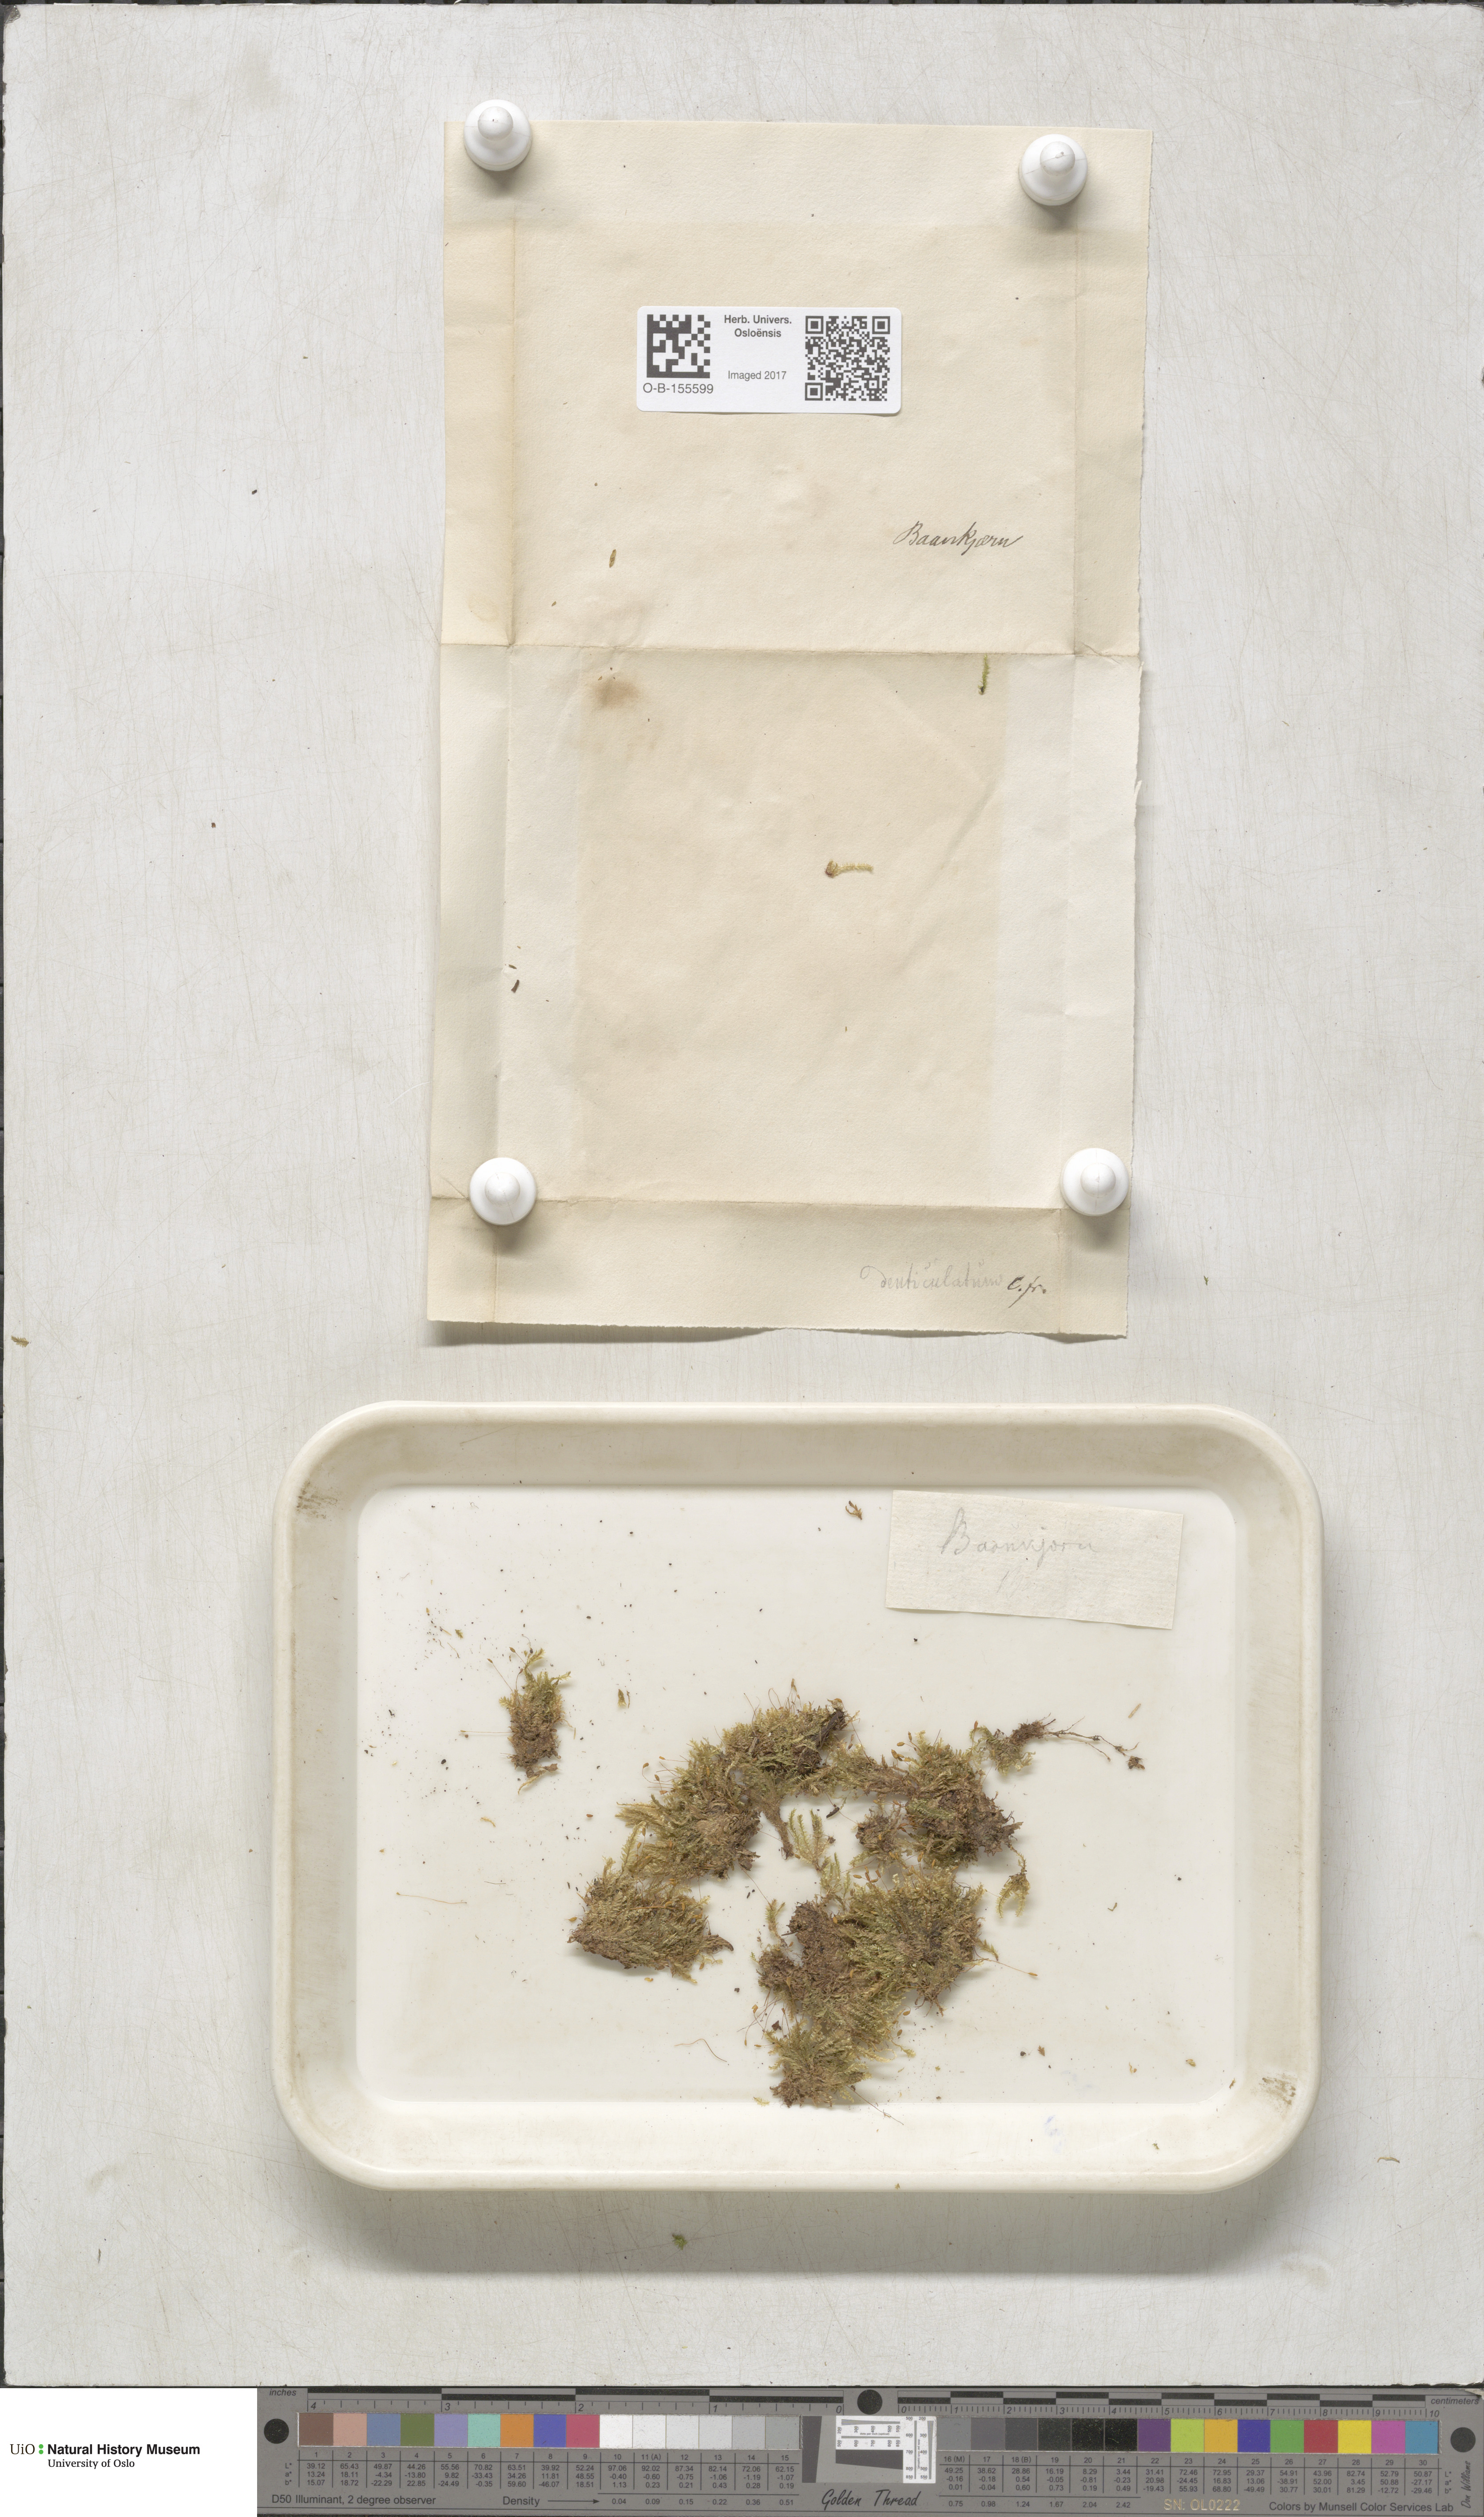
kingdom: Plantae
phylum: Bryophyta
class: Bryopsida
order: Hypnales
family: Plagiotheciaceae
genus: Plagiothecium
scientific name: Plagiothecium laetum
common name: Bright silk moss
